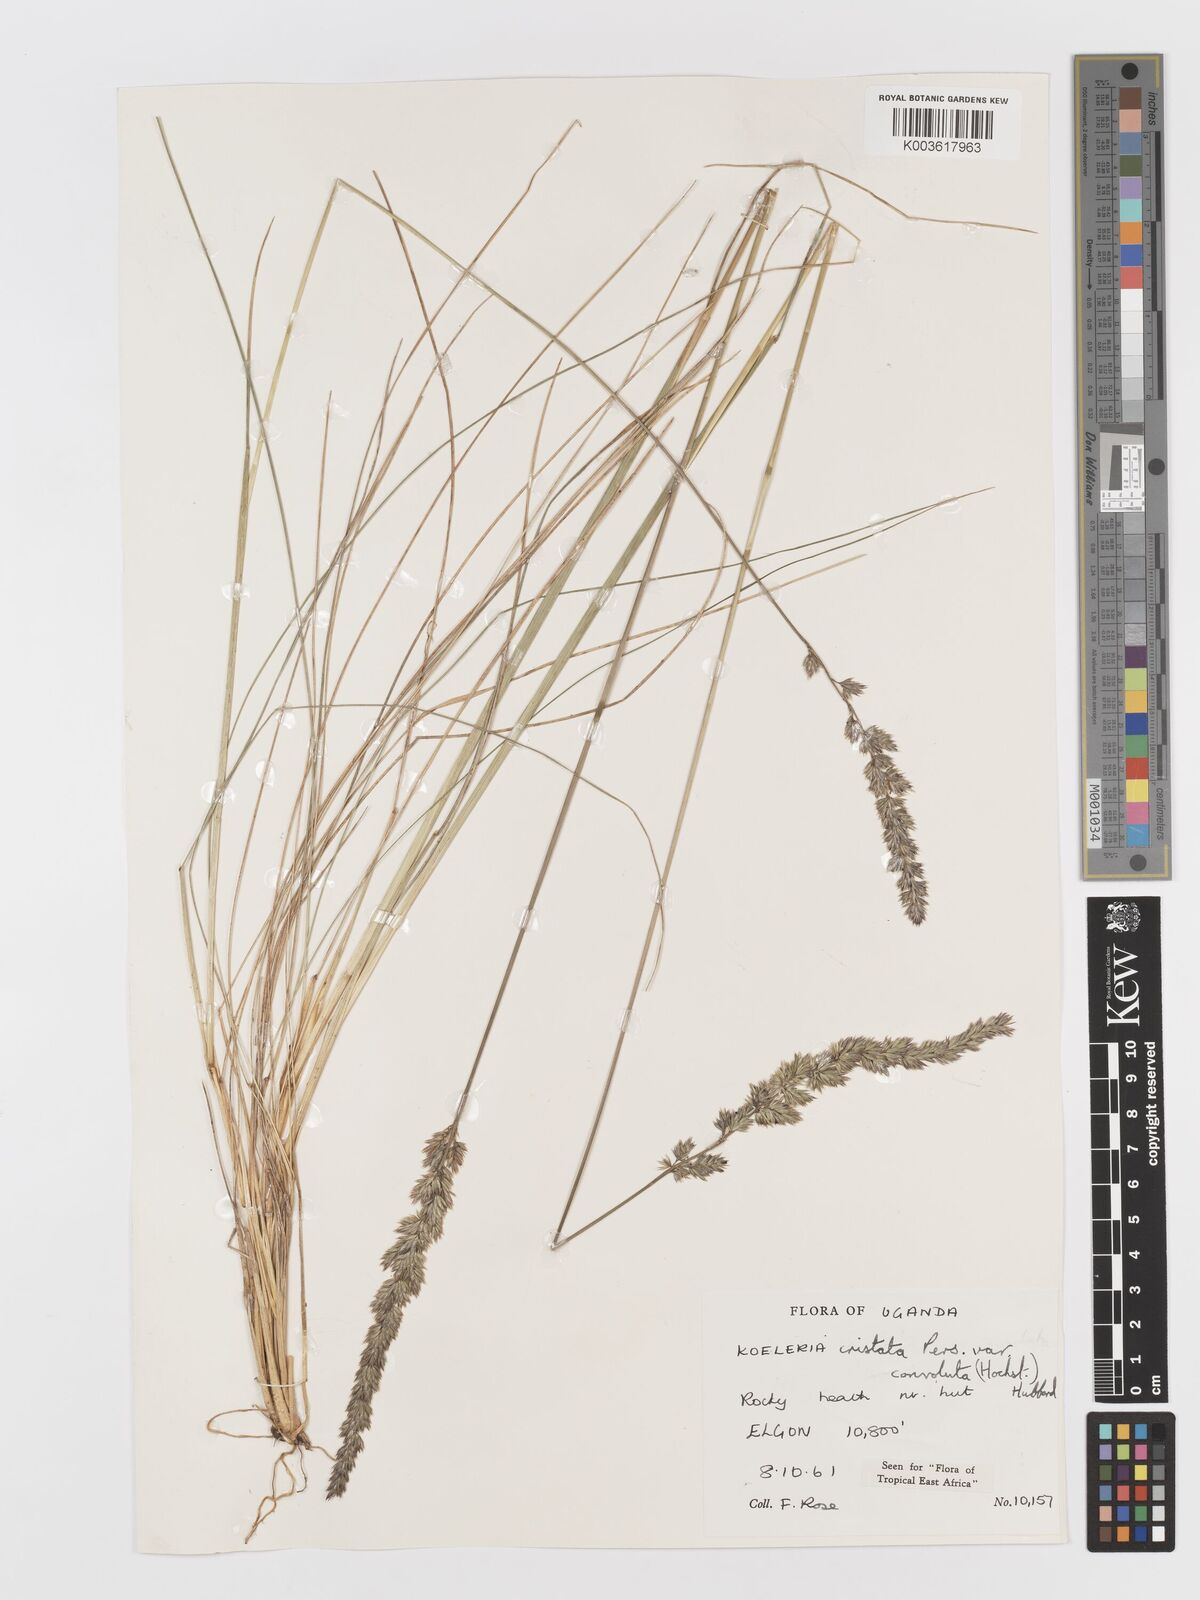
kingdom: Plantae
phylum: Tracheophyta
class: Liliopsida
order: Poales
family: Poaceae
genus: Koeleria
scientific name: Koeleria capensis
